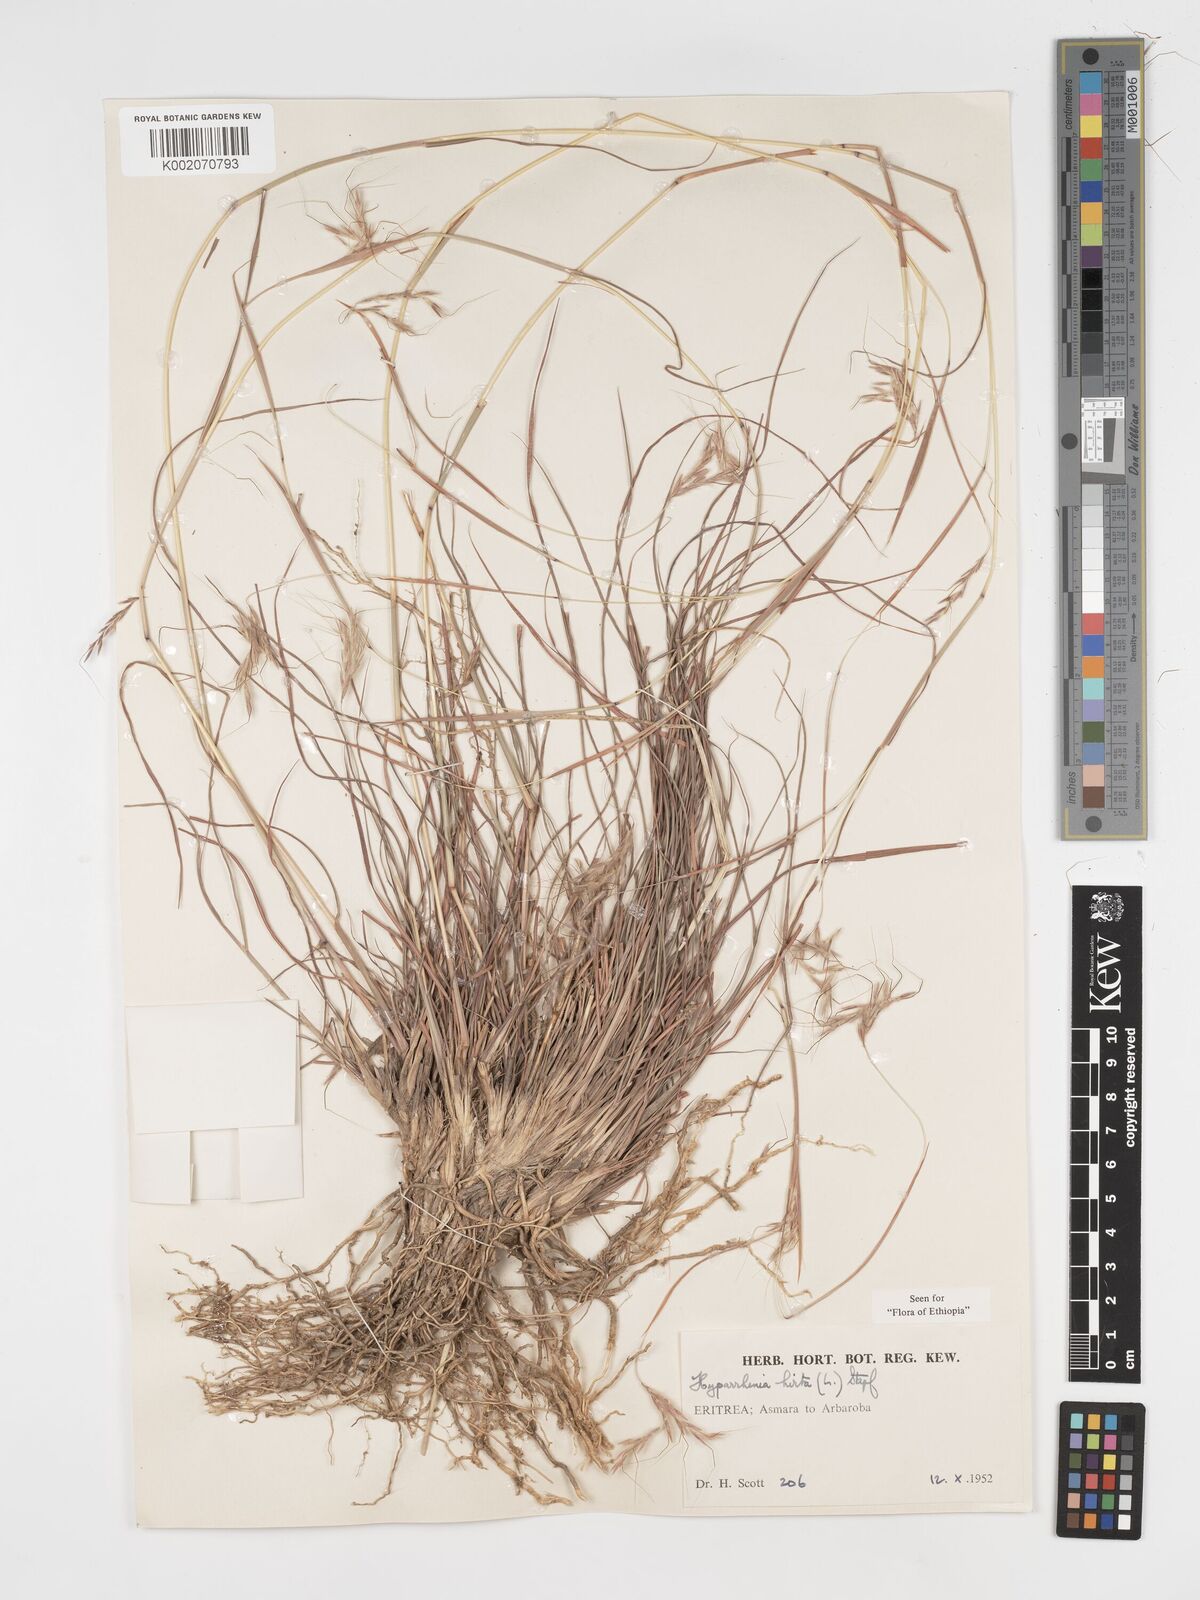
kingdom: Plantae
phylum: Tracheophyta
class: Liliopsida
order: Poales
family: Poaceae
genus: Hyparrhenia
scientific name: Hyparrhenia hirta
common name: Thatching grass
